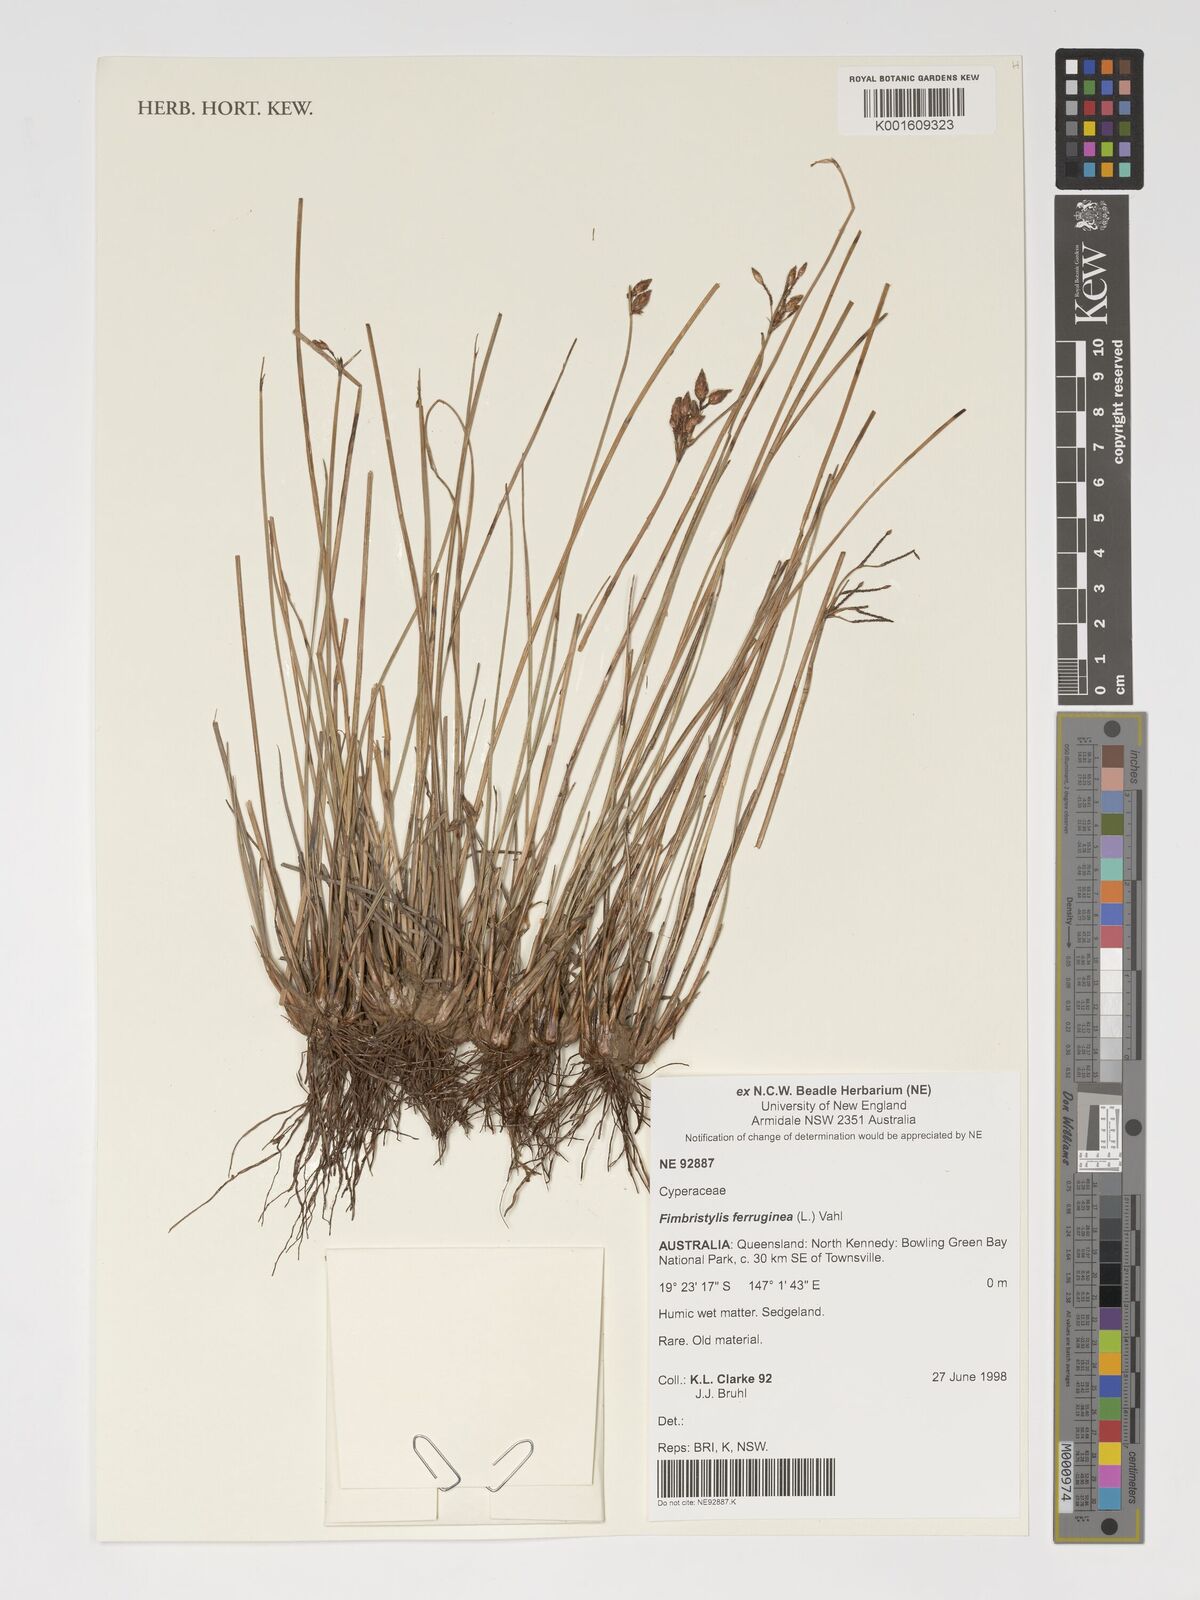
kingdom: Plantae
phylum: Tracheophyta
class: Liliopsida
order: Poales
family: Cyperaceae
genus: Fimbristylis
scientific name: Fimbristylis ferruginea
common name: West indian fimbry
